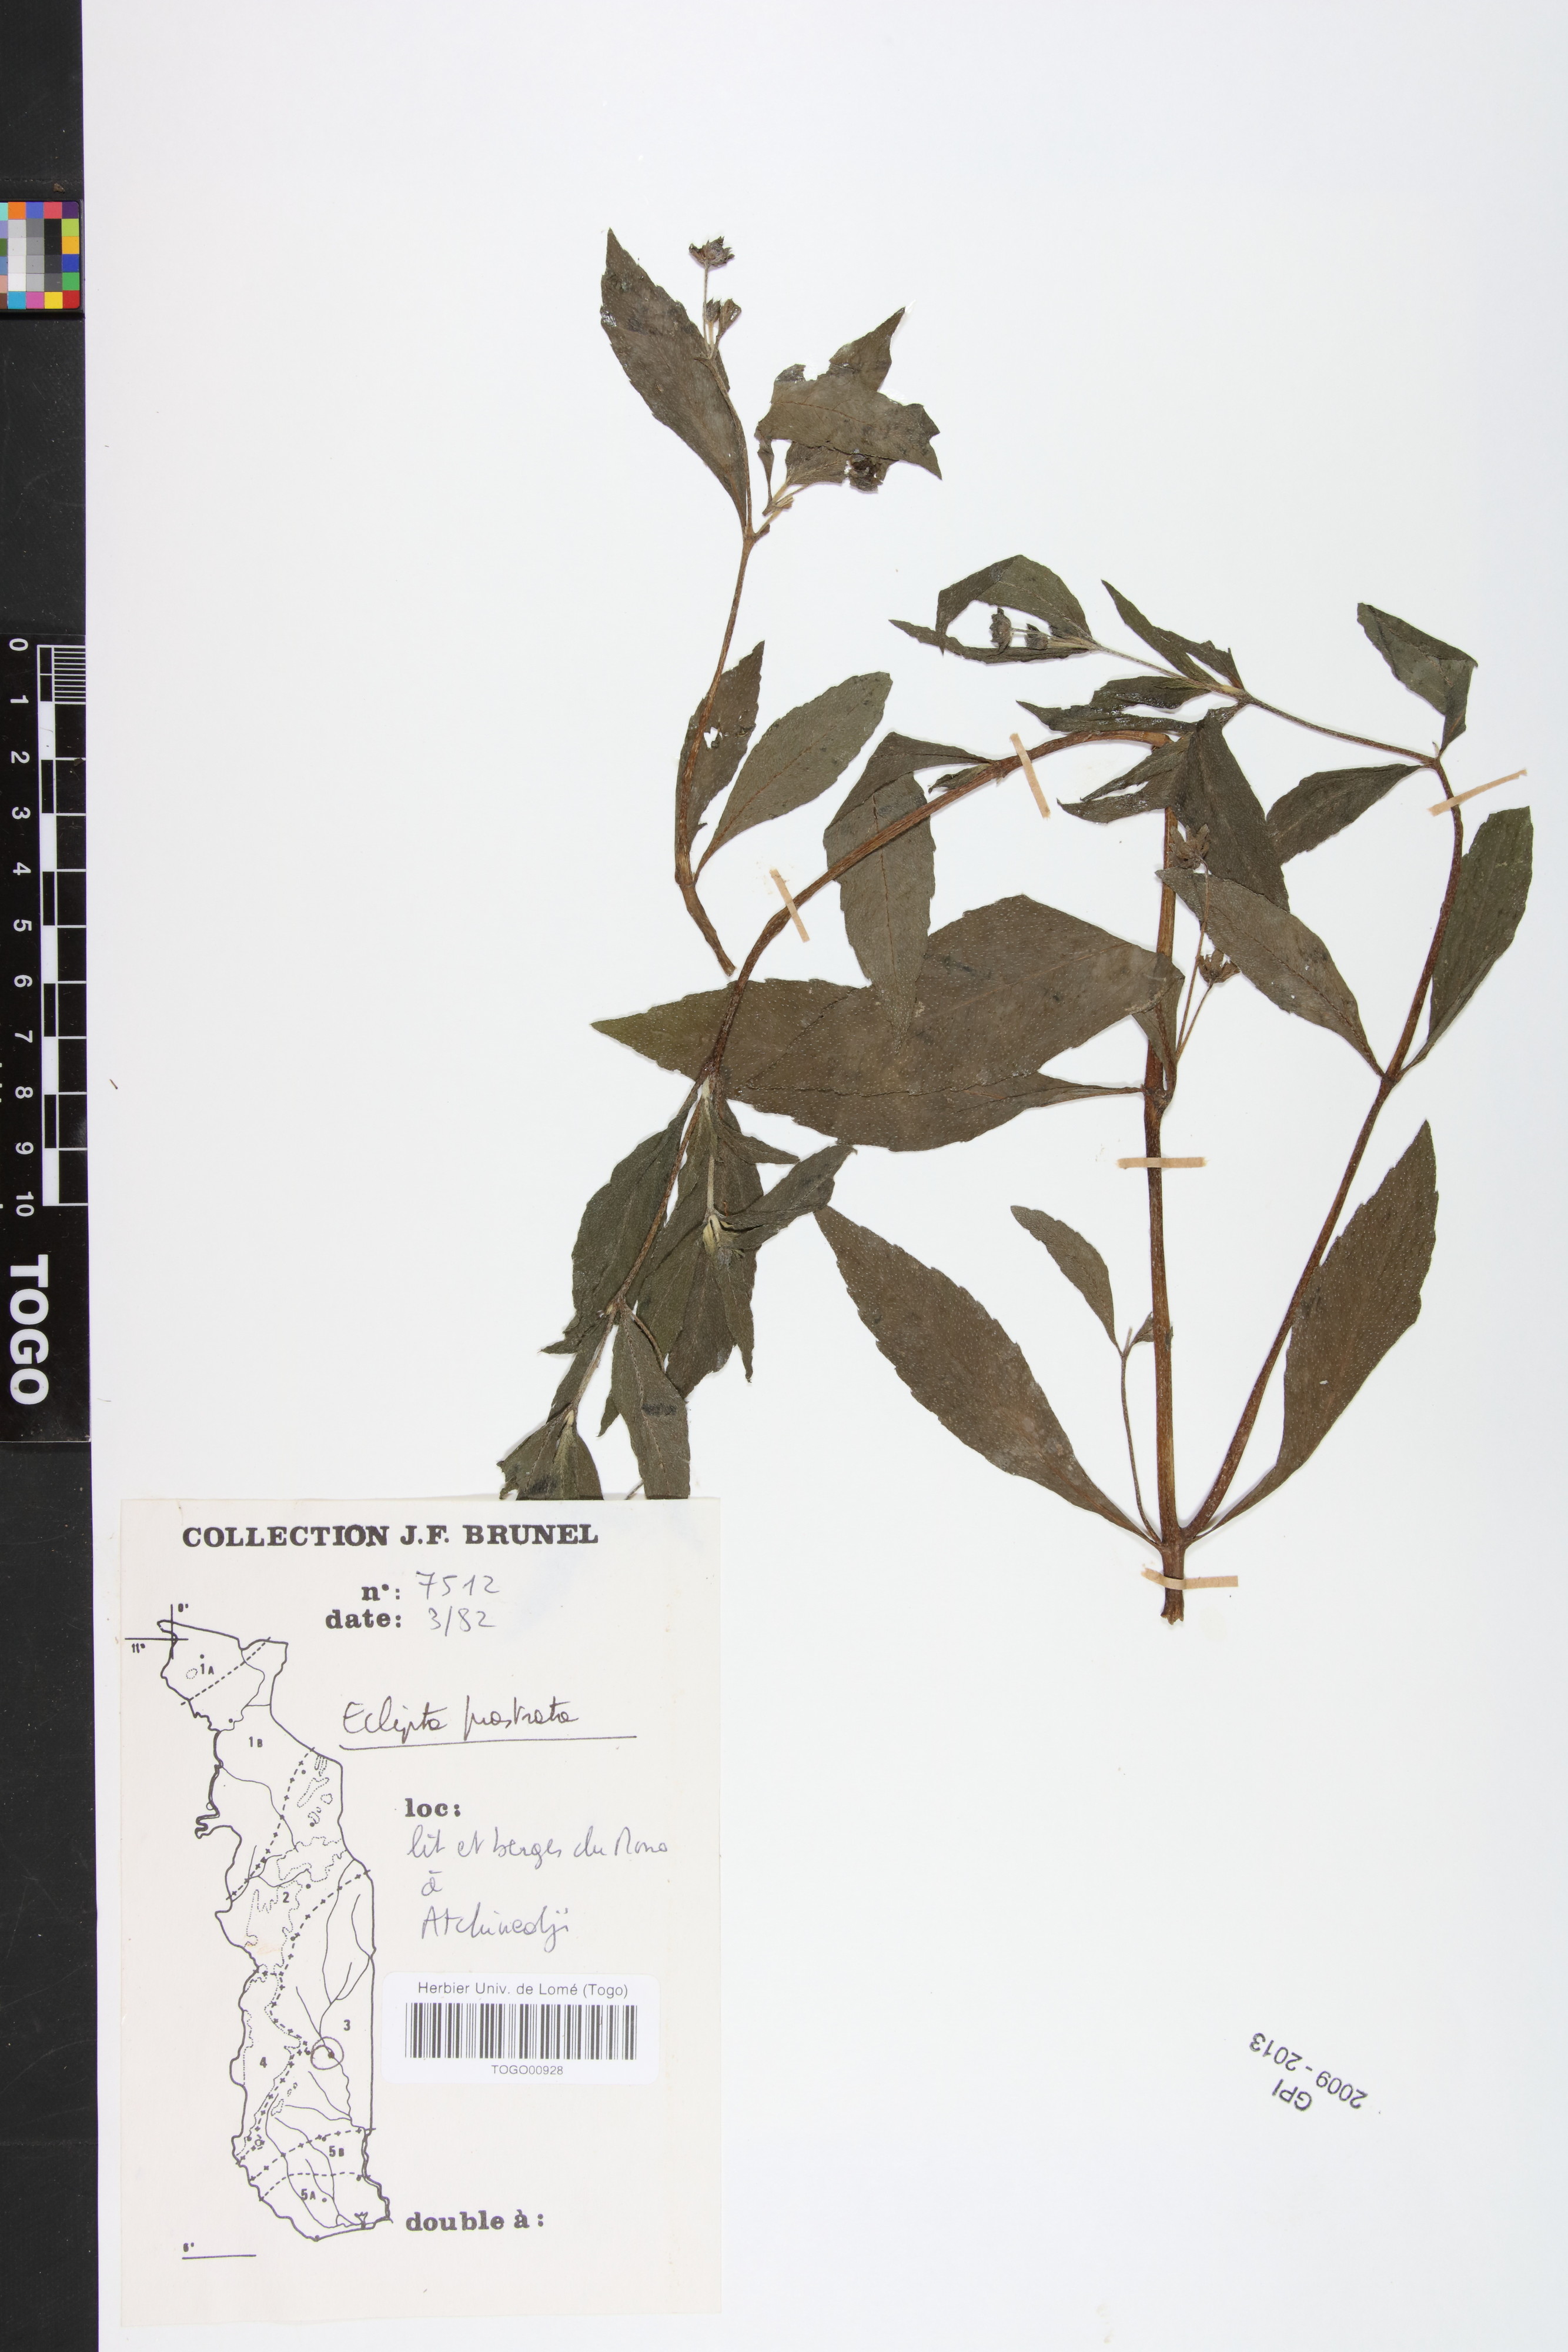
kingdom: Plantae
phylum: Tracheophyta
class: Magnoliopsida
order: Asterales
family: Asteraceae
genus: Eclipta
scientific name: Eclipta prostrata
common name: False daisy
